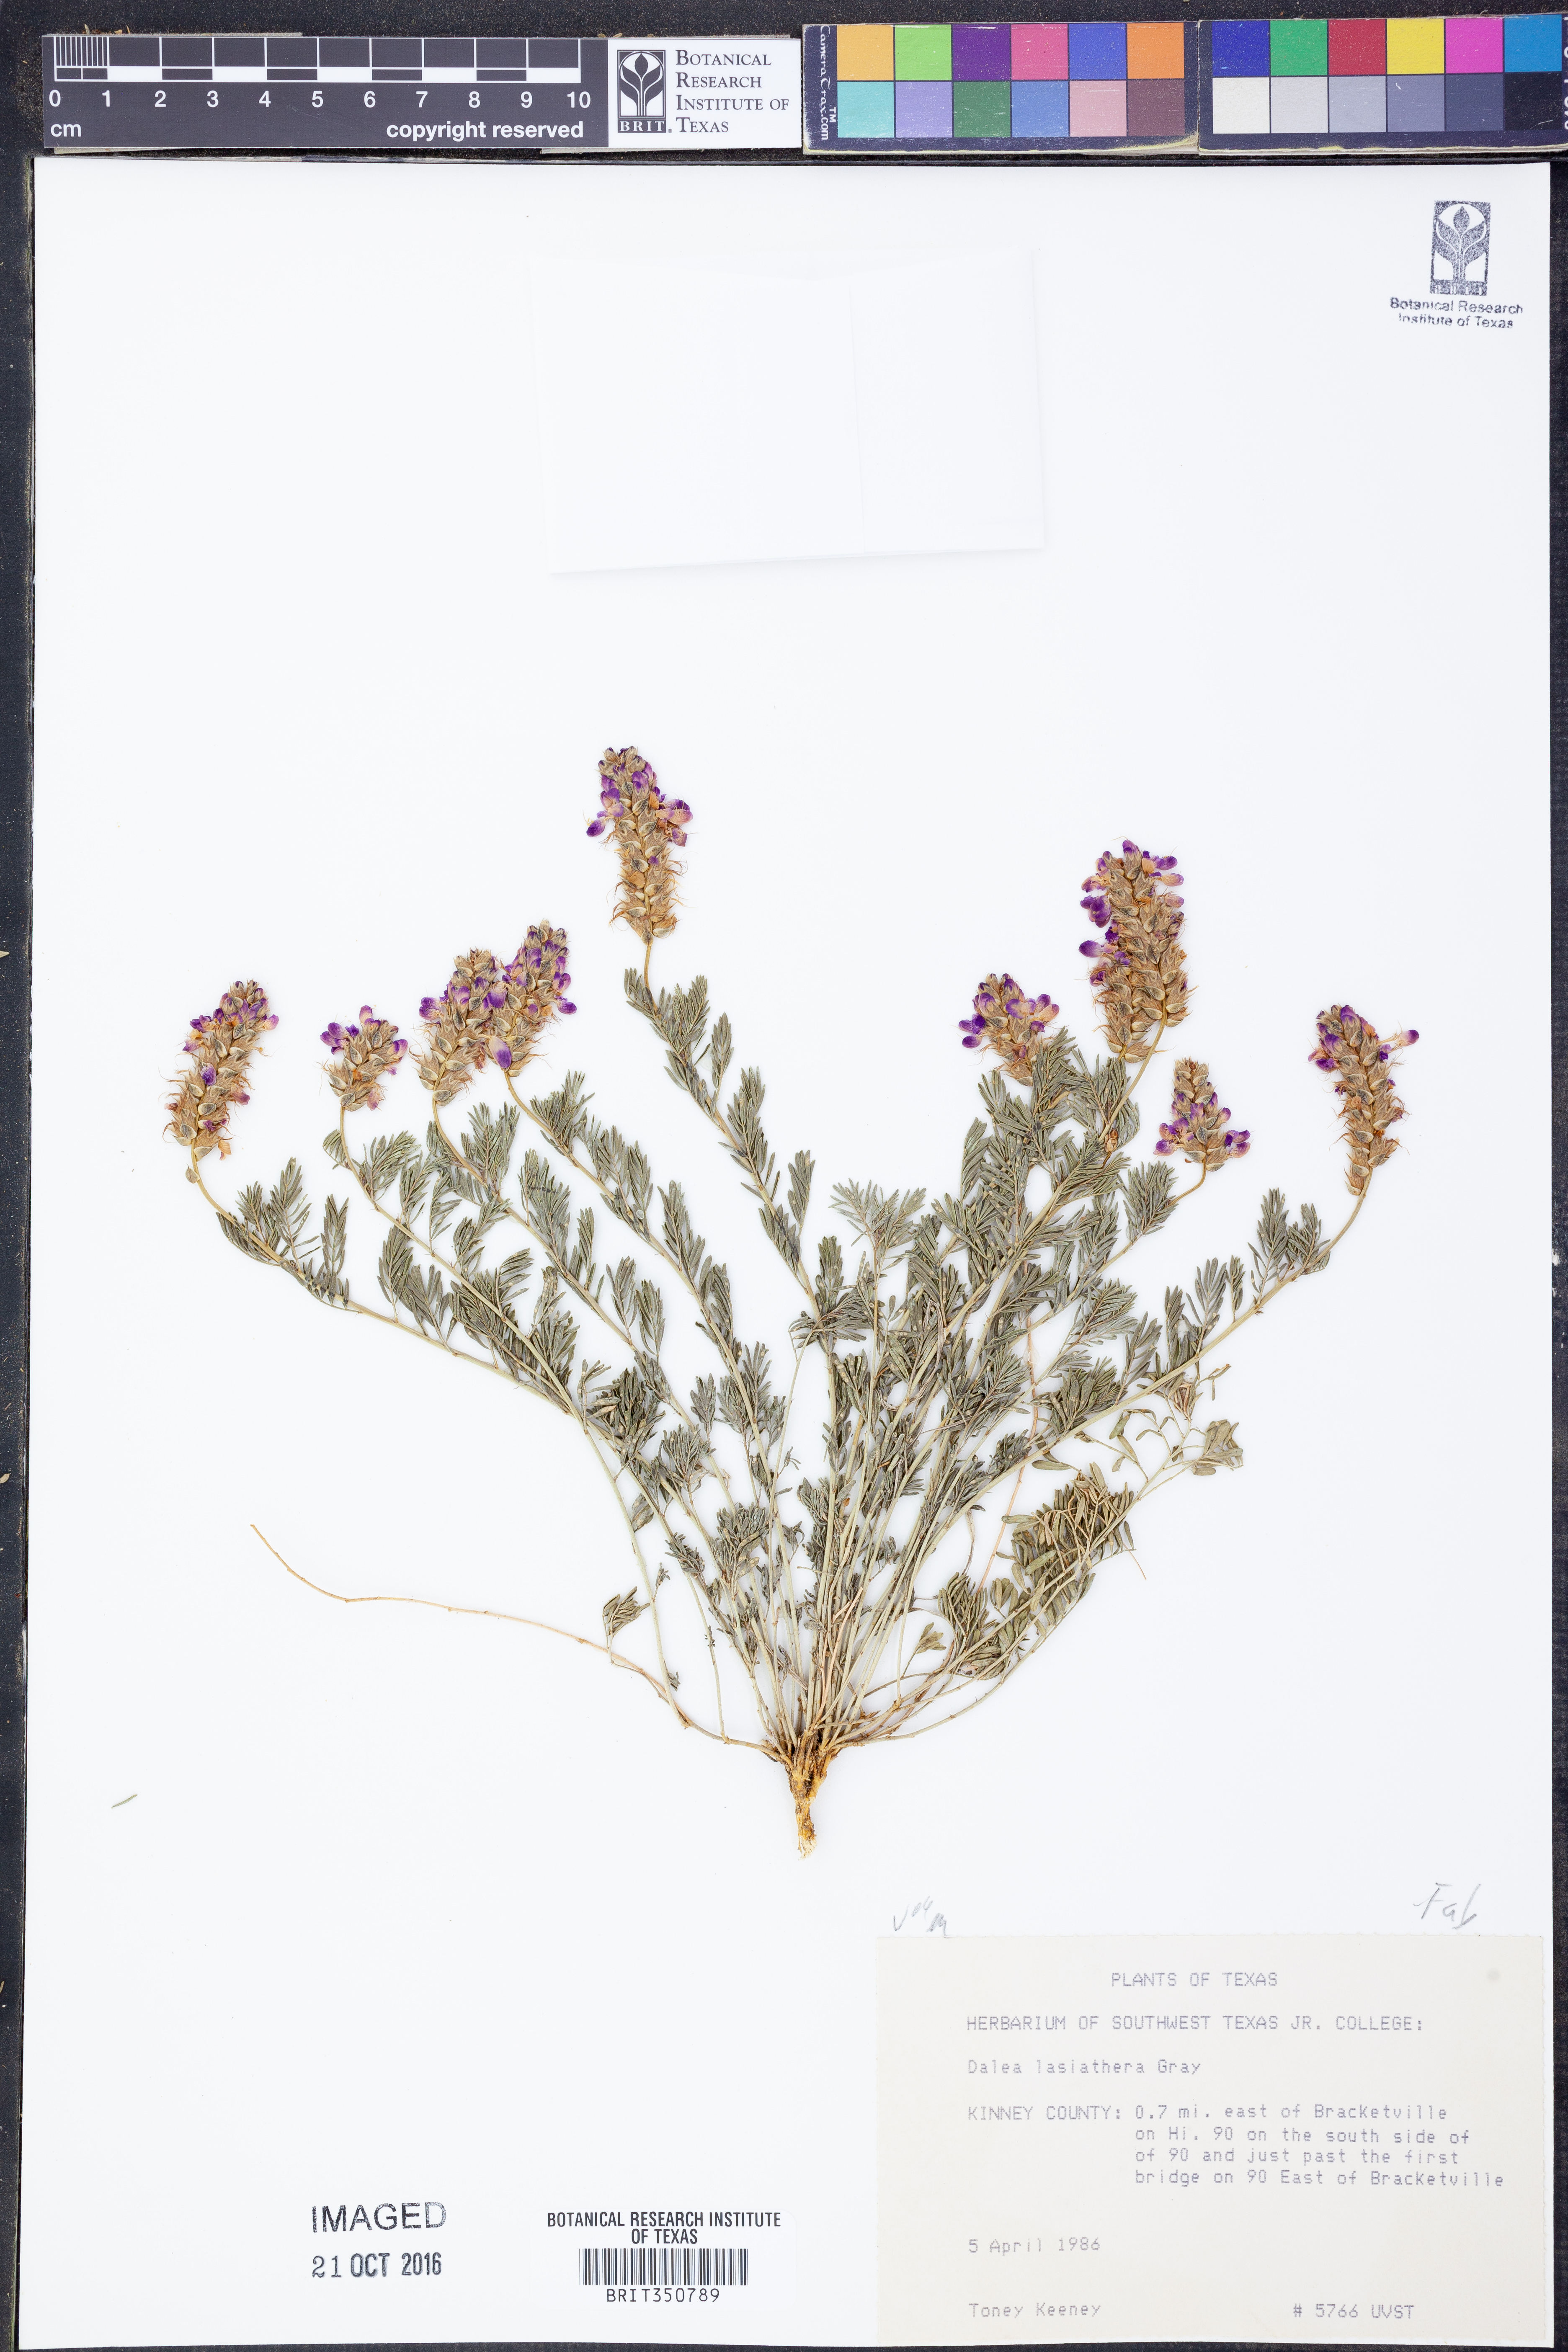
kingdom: Plantae
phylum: Tracheophyta
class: Magnoliopsida
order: Fabales
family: Fabaceae
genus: Dalea
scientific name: Dalea lasiathera
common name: Purple prairie-clover
